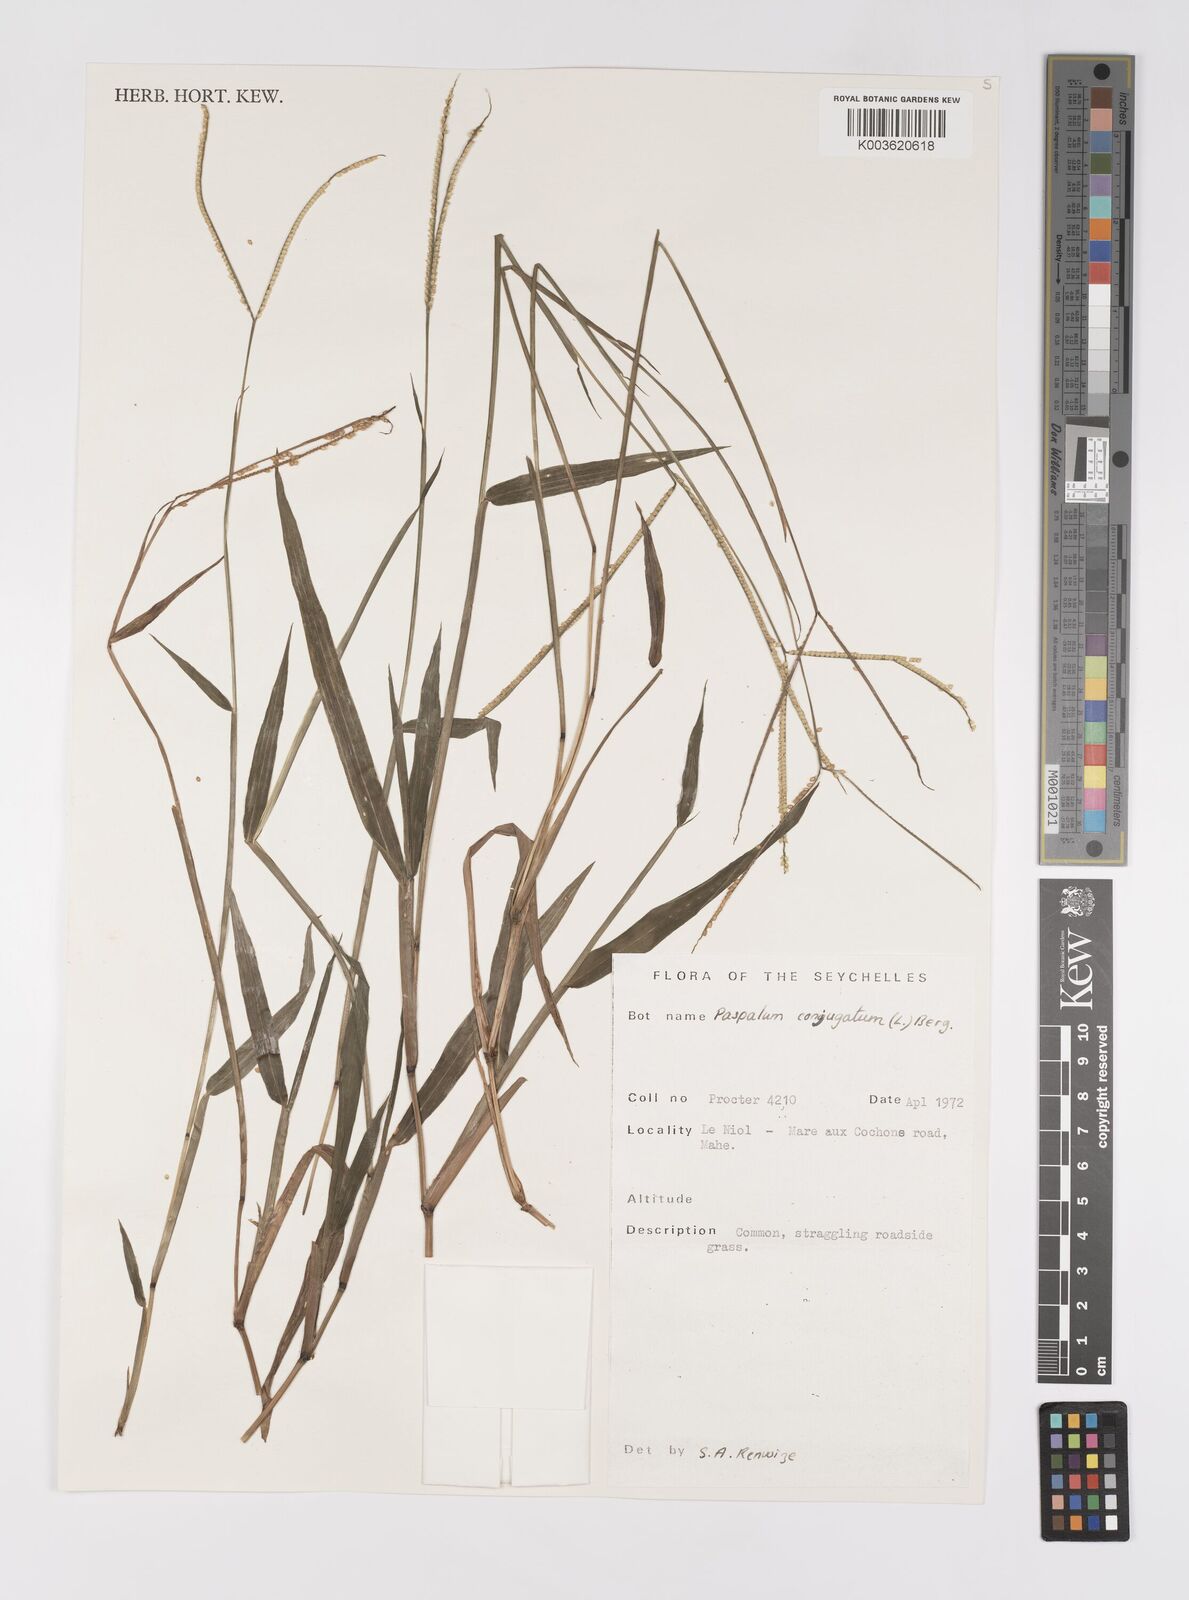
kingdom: Plantae
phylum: Tracheophyta
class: Liliopsida
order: Poales
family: Poaceae
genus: Paspalum
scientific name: Paspalum conjugatum
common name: Hilograss
